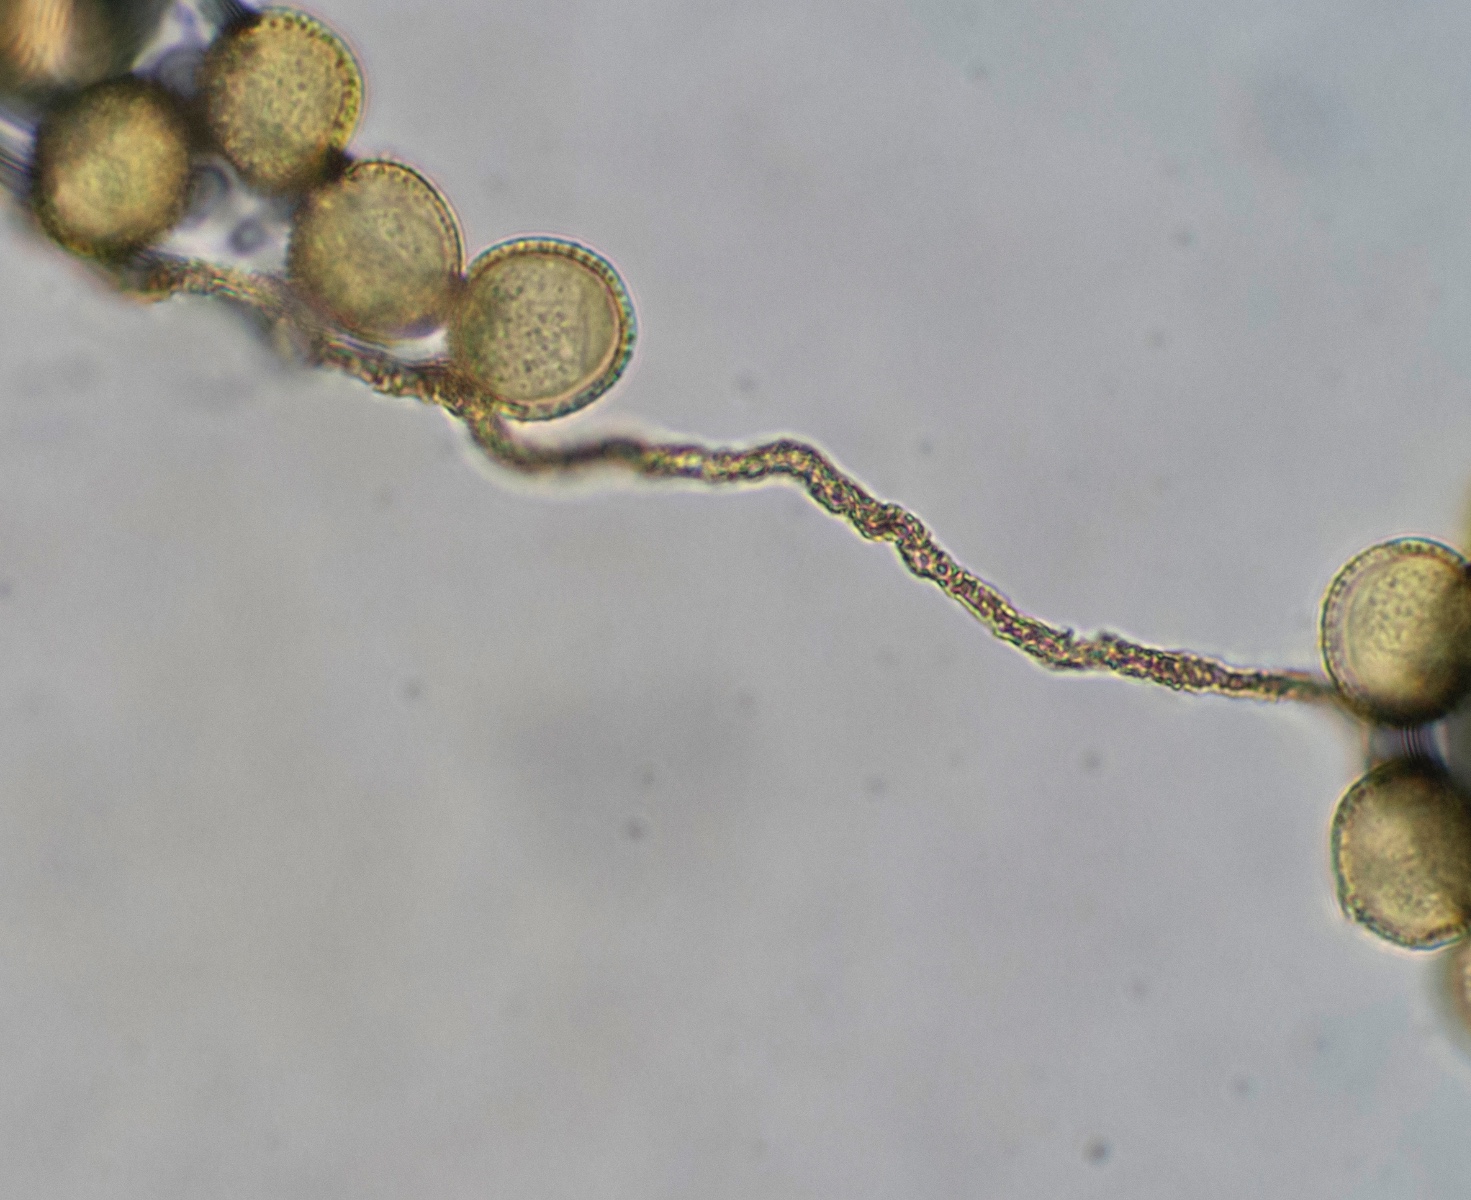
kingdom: Protozoa
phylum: Mycetozoa
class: Myxomycetes
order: Trichiales
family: Trichiaceae
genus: Perichaena
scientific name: Perichaena corticalis
